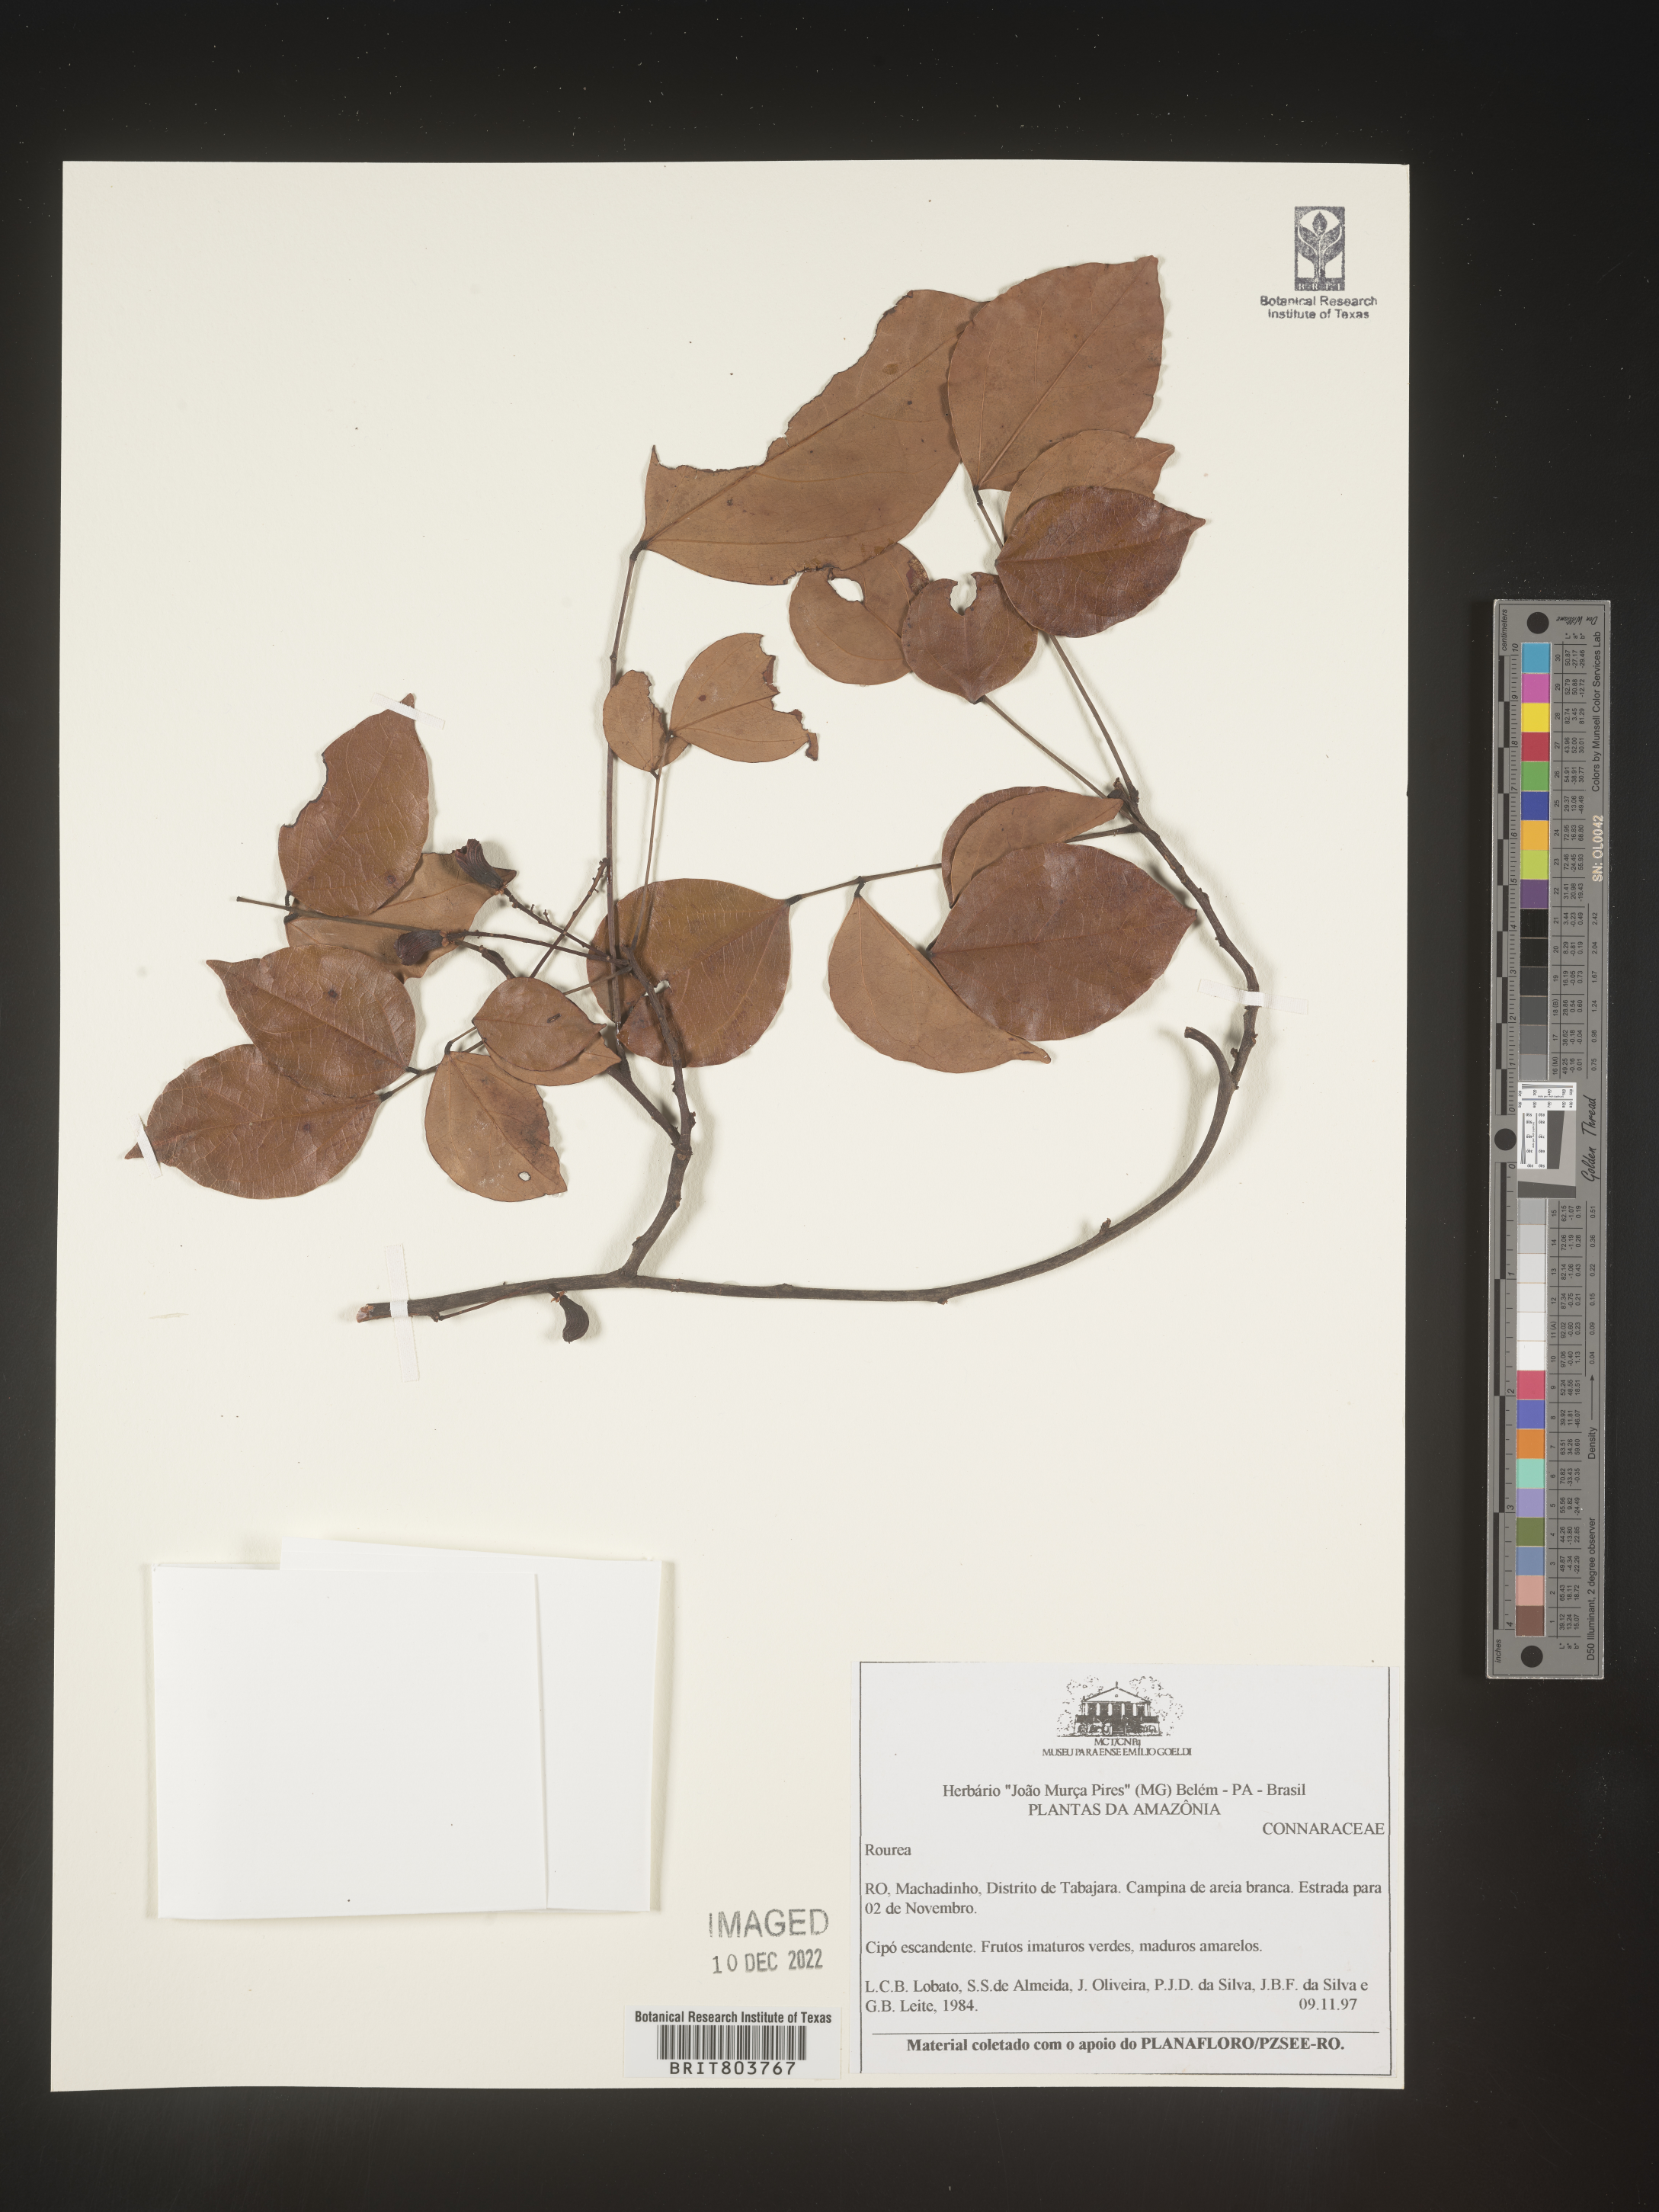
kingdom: Plantae
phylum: Tracheophyta
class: Magnoliopsida
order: Oxalidales
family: Connaraceae
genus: Rourea
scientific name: Rourea
